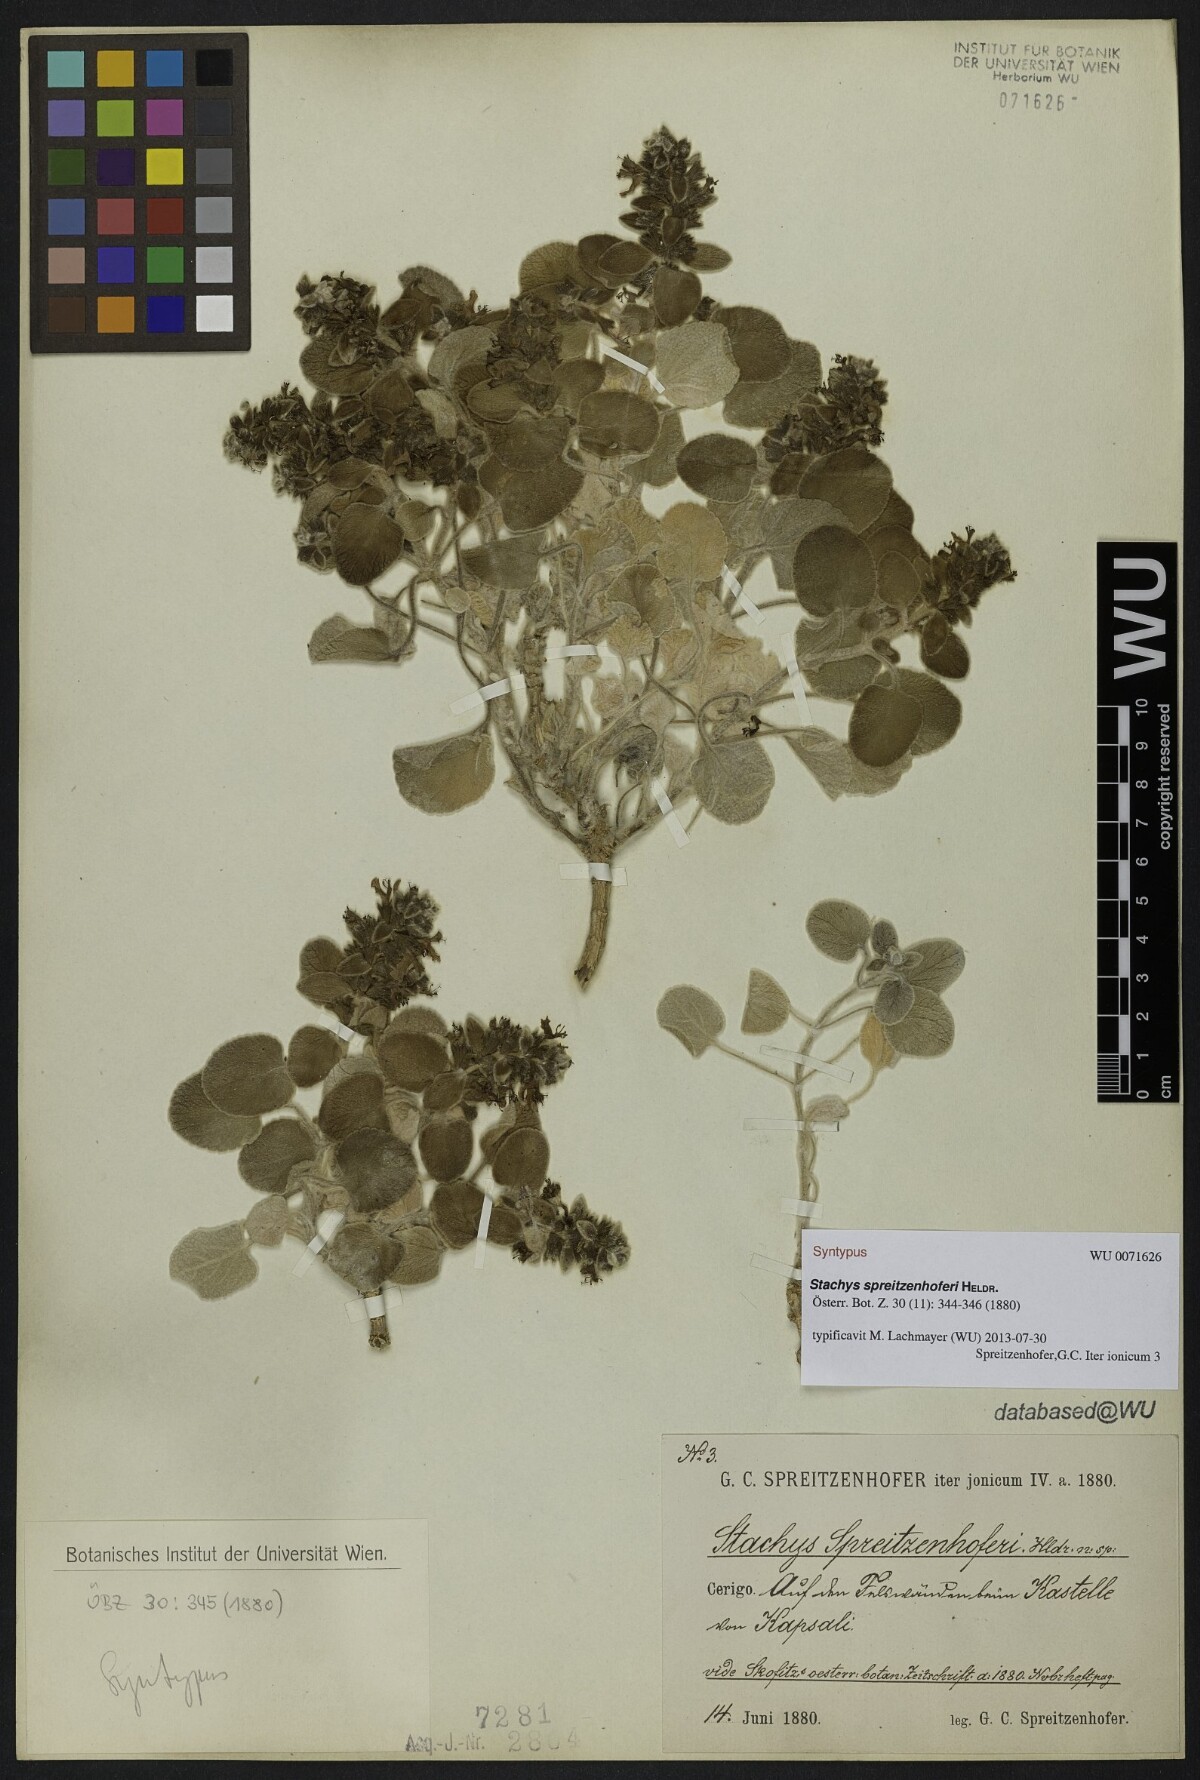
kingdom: Plantae
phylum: Tracheophyta
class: Magnoliopsida
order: Lamiales
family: Lamiaceae
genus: Stachys
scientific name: Stachys spreitzenhoferi
